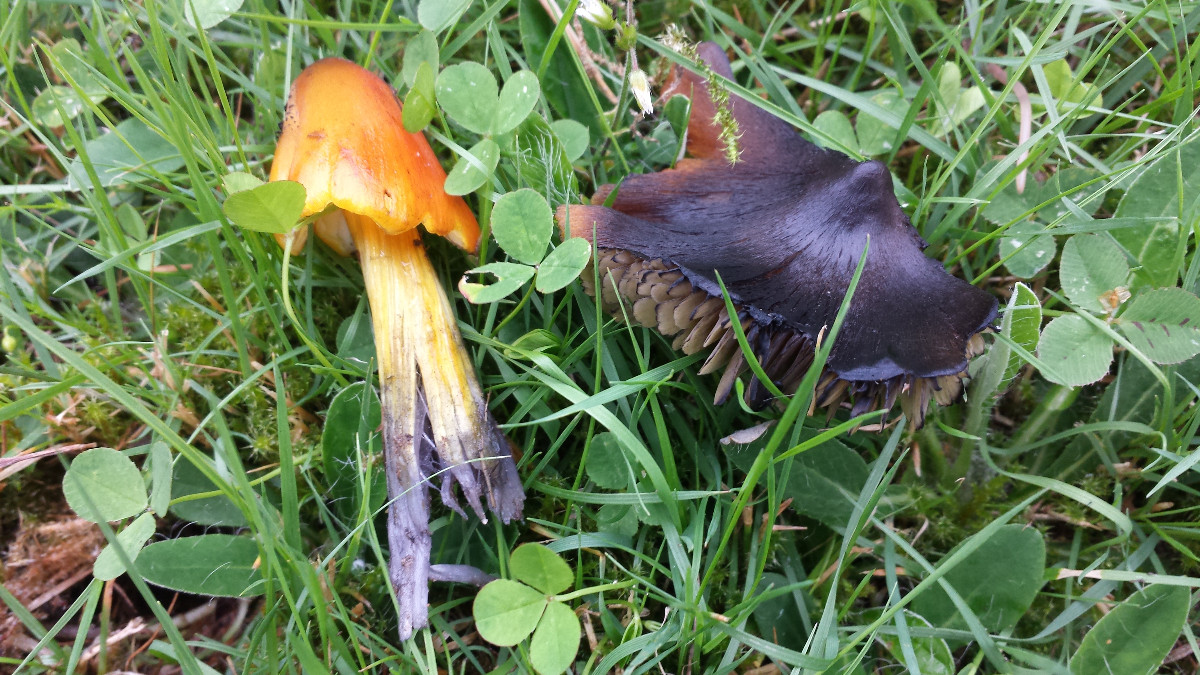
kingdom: Fungi
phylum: Basidiomycota
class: Agaricomycetes
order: Agaricales
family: Hygrophoraceae
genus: Hygrocybe
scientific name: Hygrocybe conica
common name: kegle-vokshat
